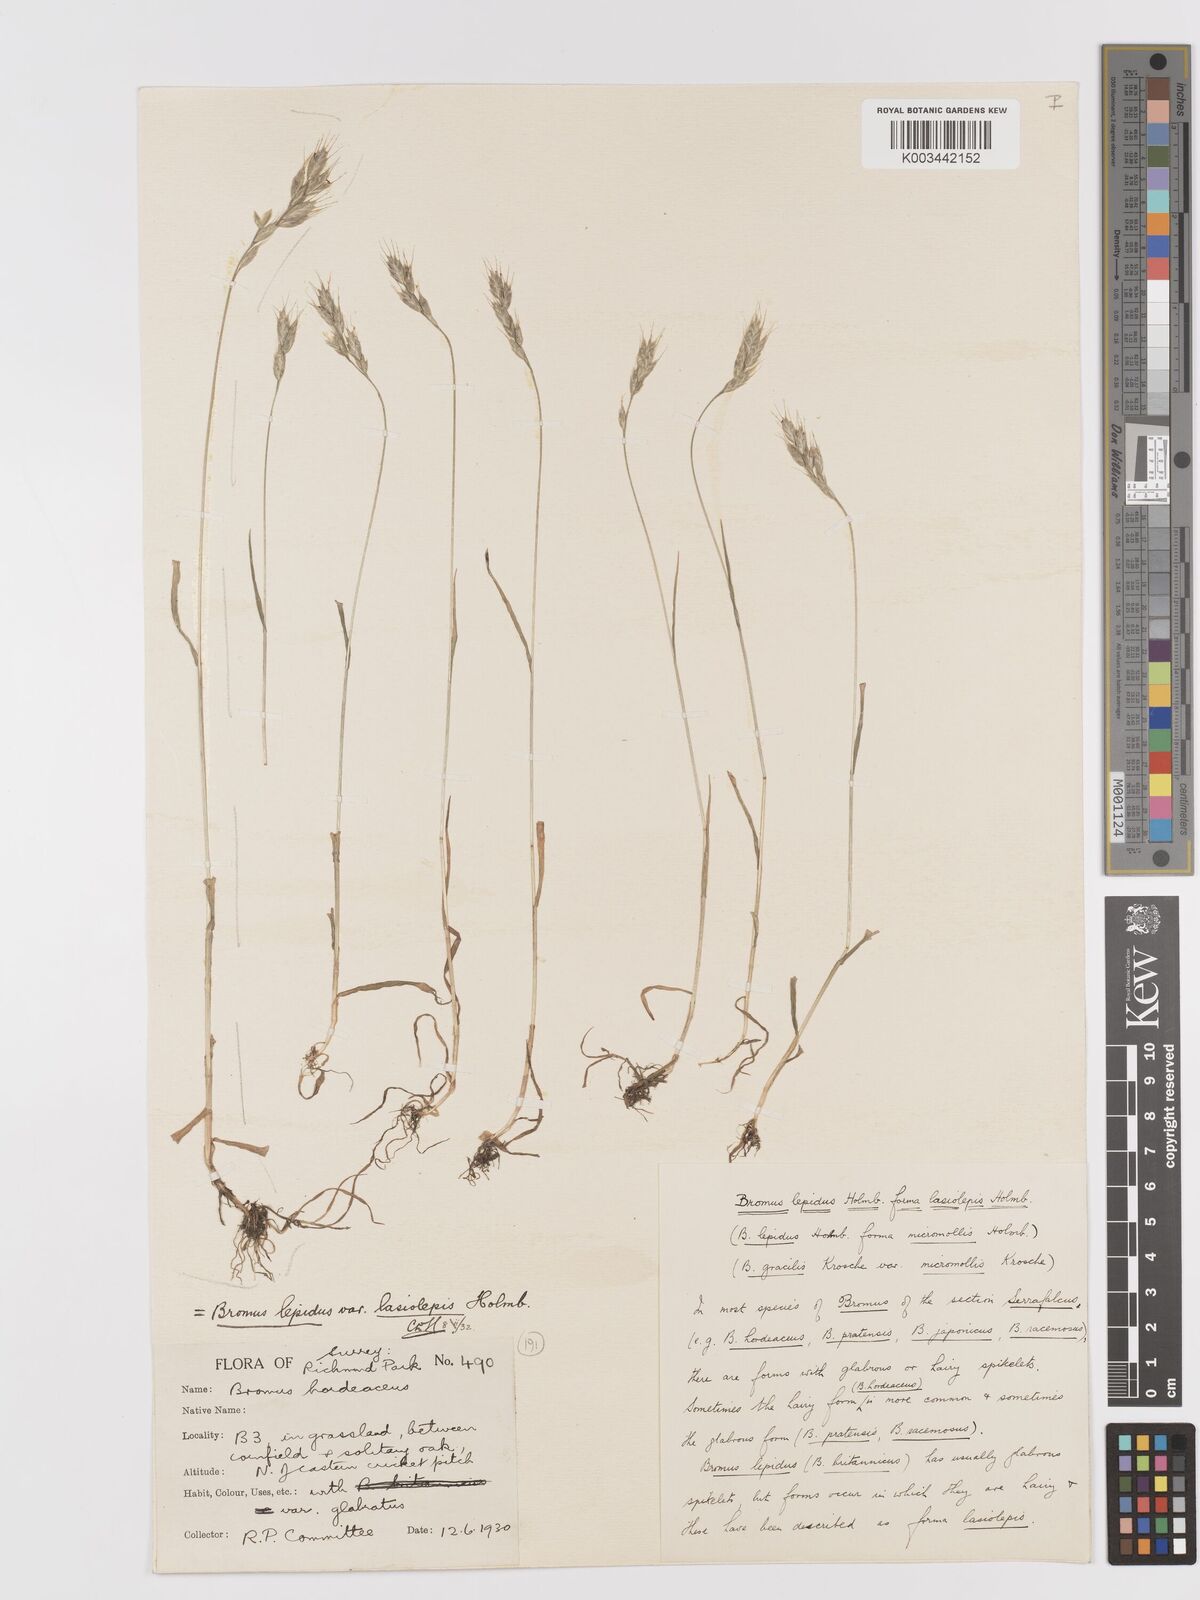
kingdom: Plantae
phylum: Tracheophyta
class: Liliopsida
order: Poales
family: Poaceae
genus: Bromus
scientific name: Bromus lepidus
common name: Slender soft-brome
